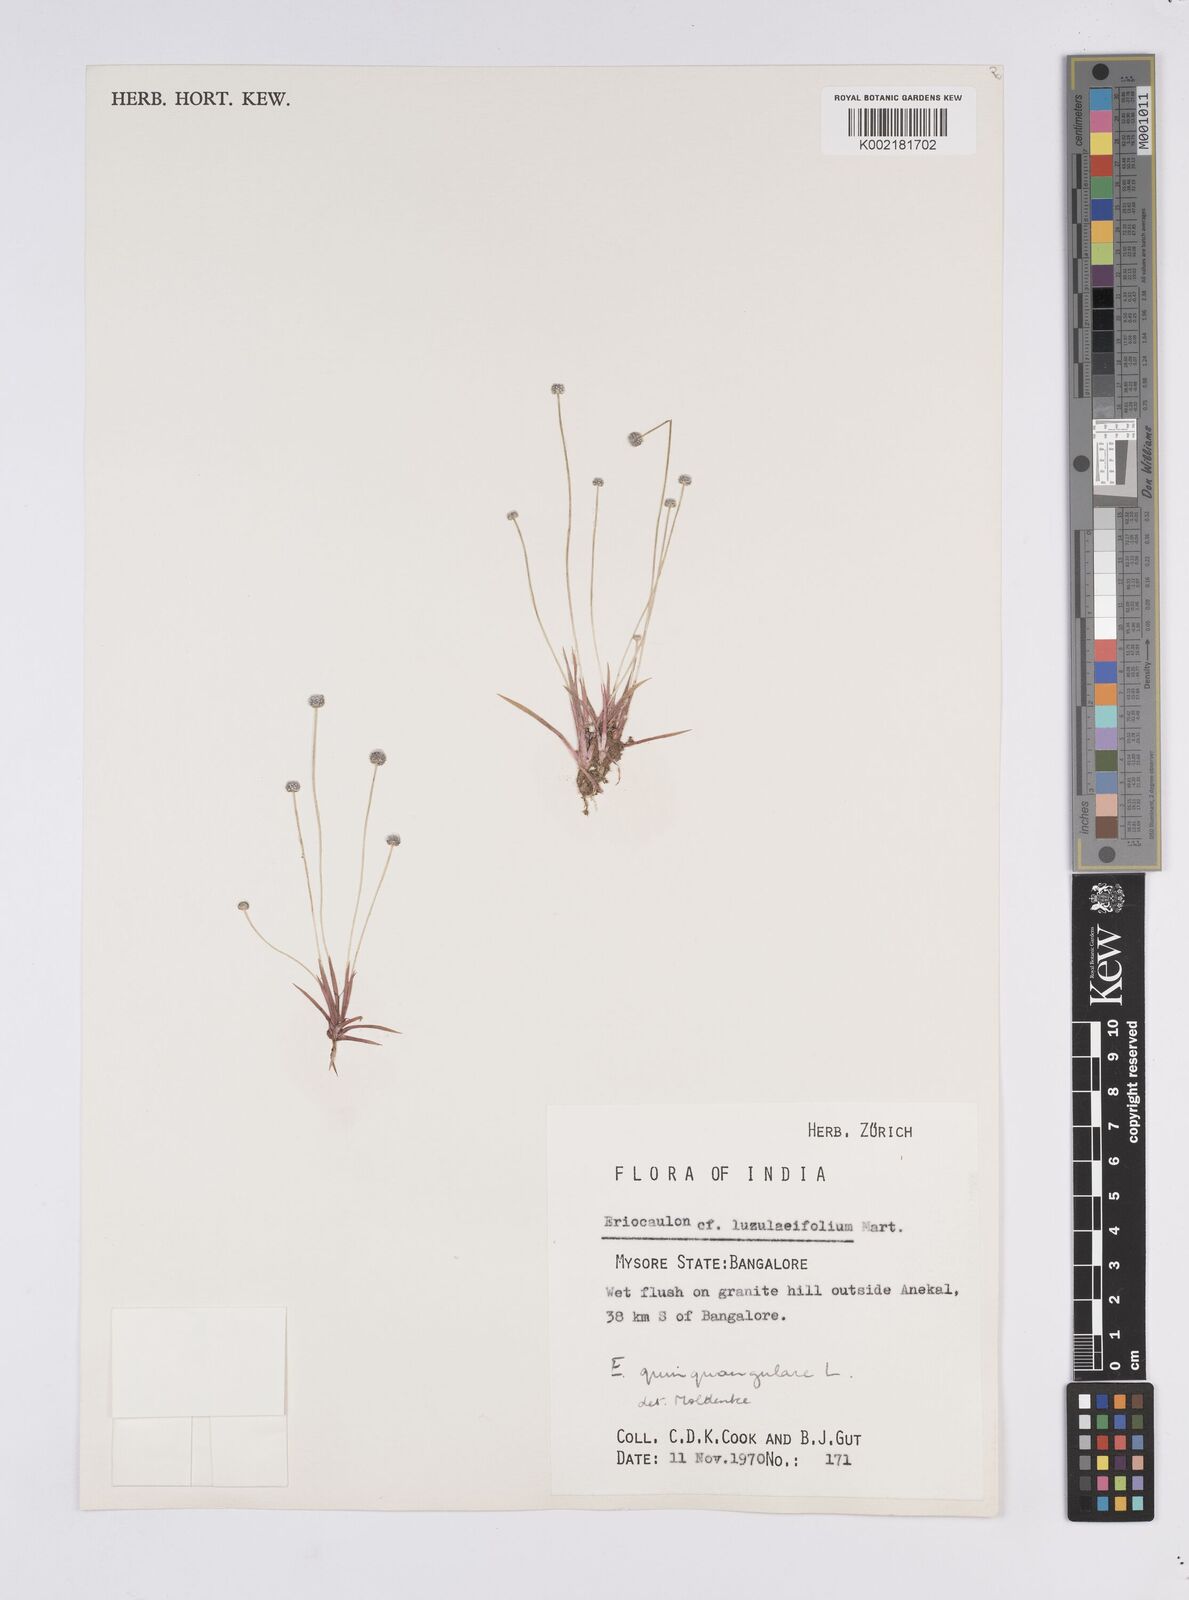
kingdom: Plantae
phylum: Tracheophyta
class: Liliopsida
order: Poales
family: Eriocaulaceae
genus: Eriocaulon
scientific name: Eriocaulon quinquangulare
